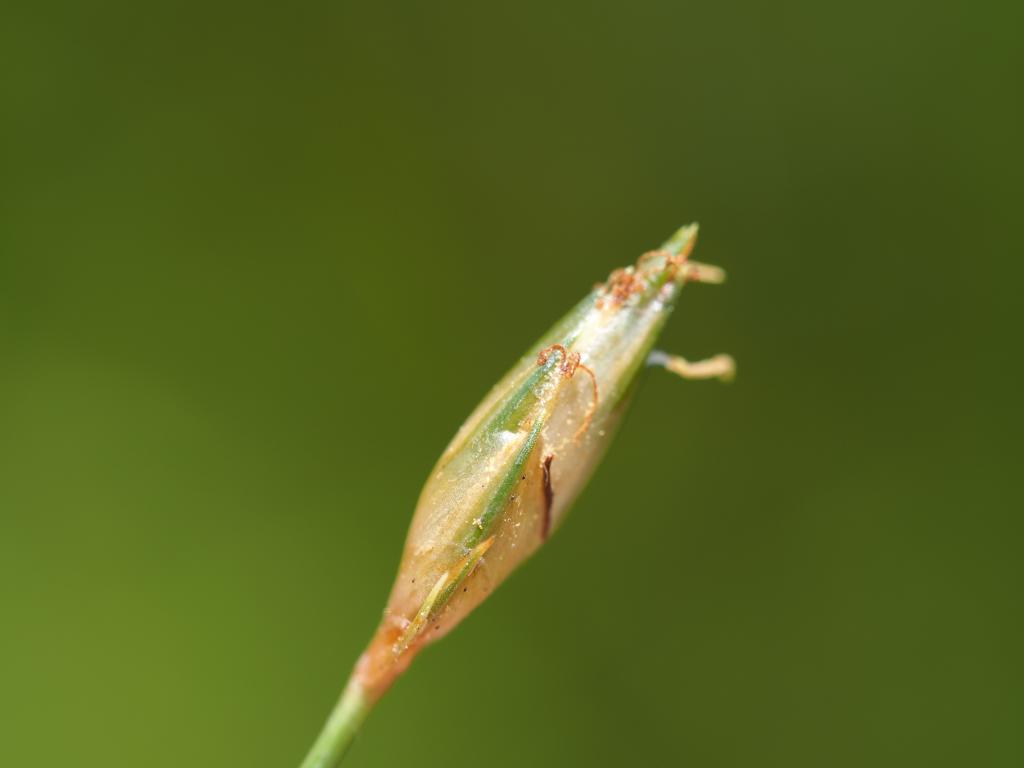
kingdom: Plantae
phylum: Tracheophyta
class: Liliopsida
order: Poales
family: Cyperaceae
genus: Abildgaardia
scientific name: Abildgaardia ovata
